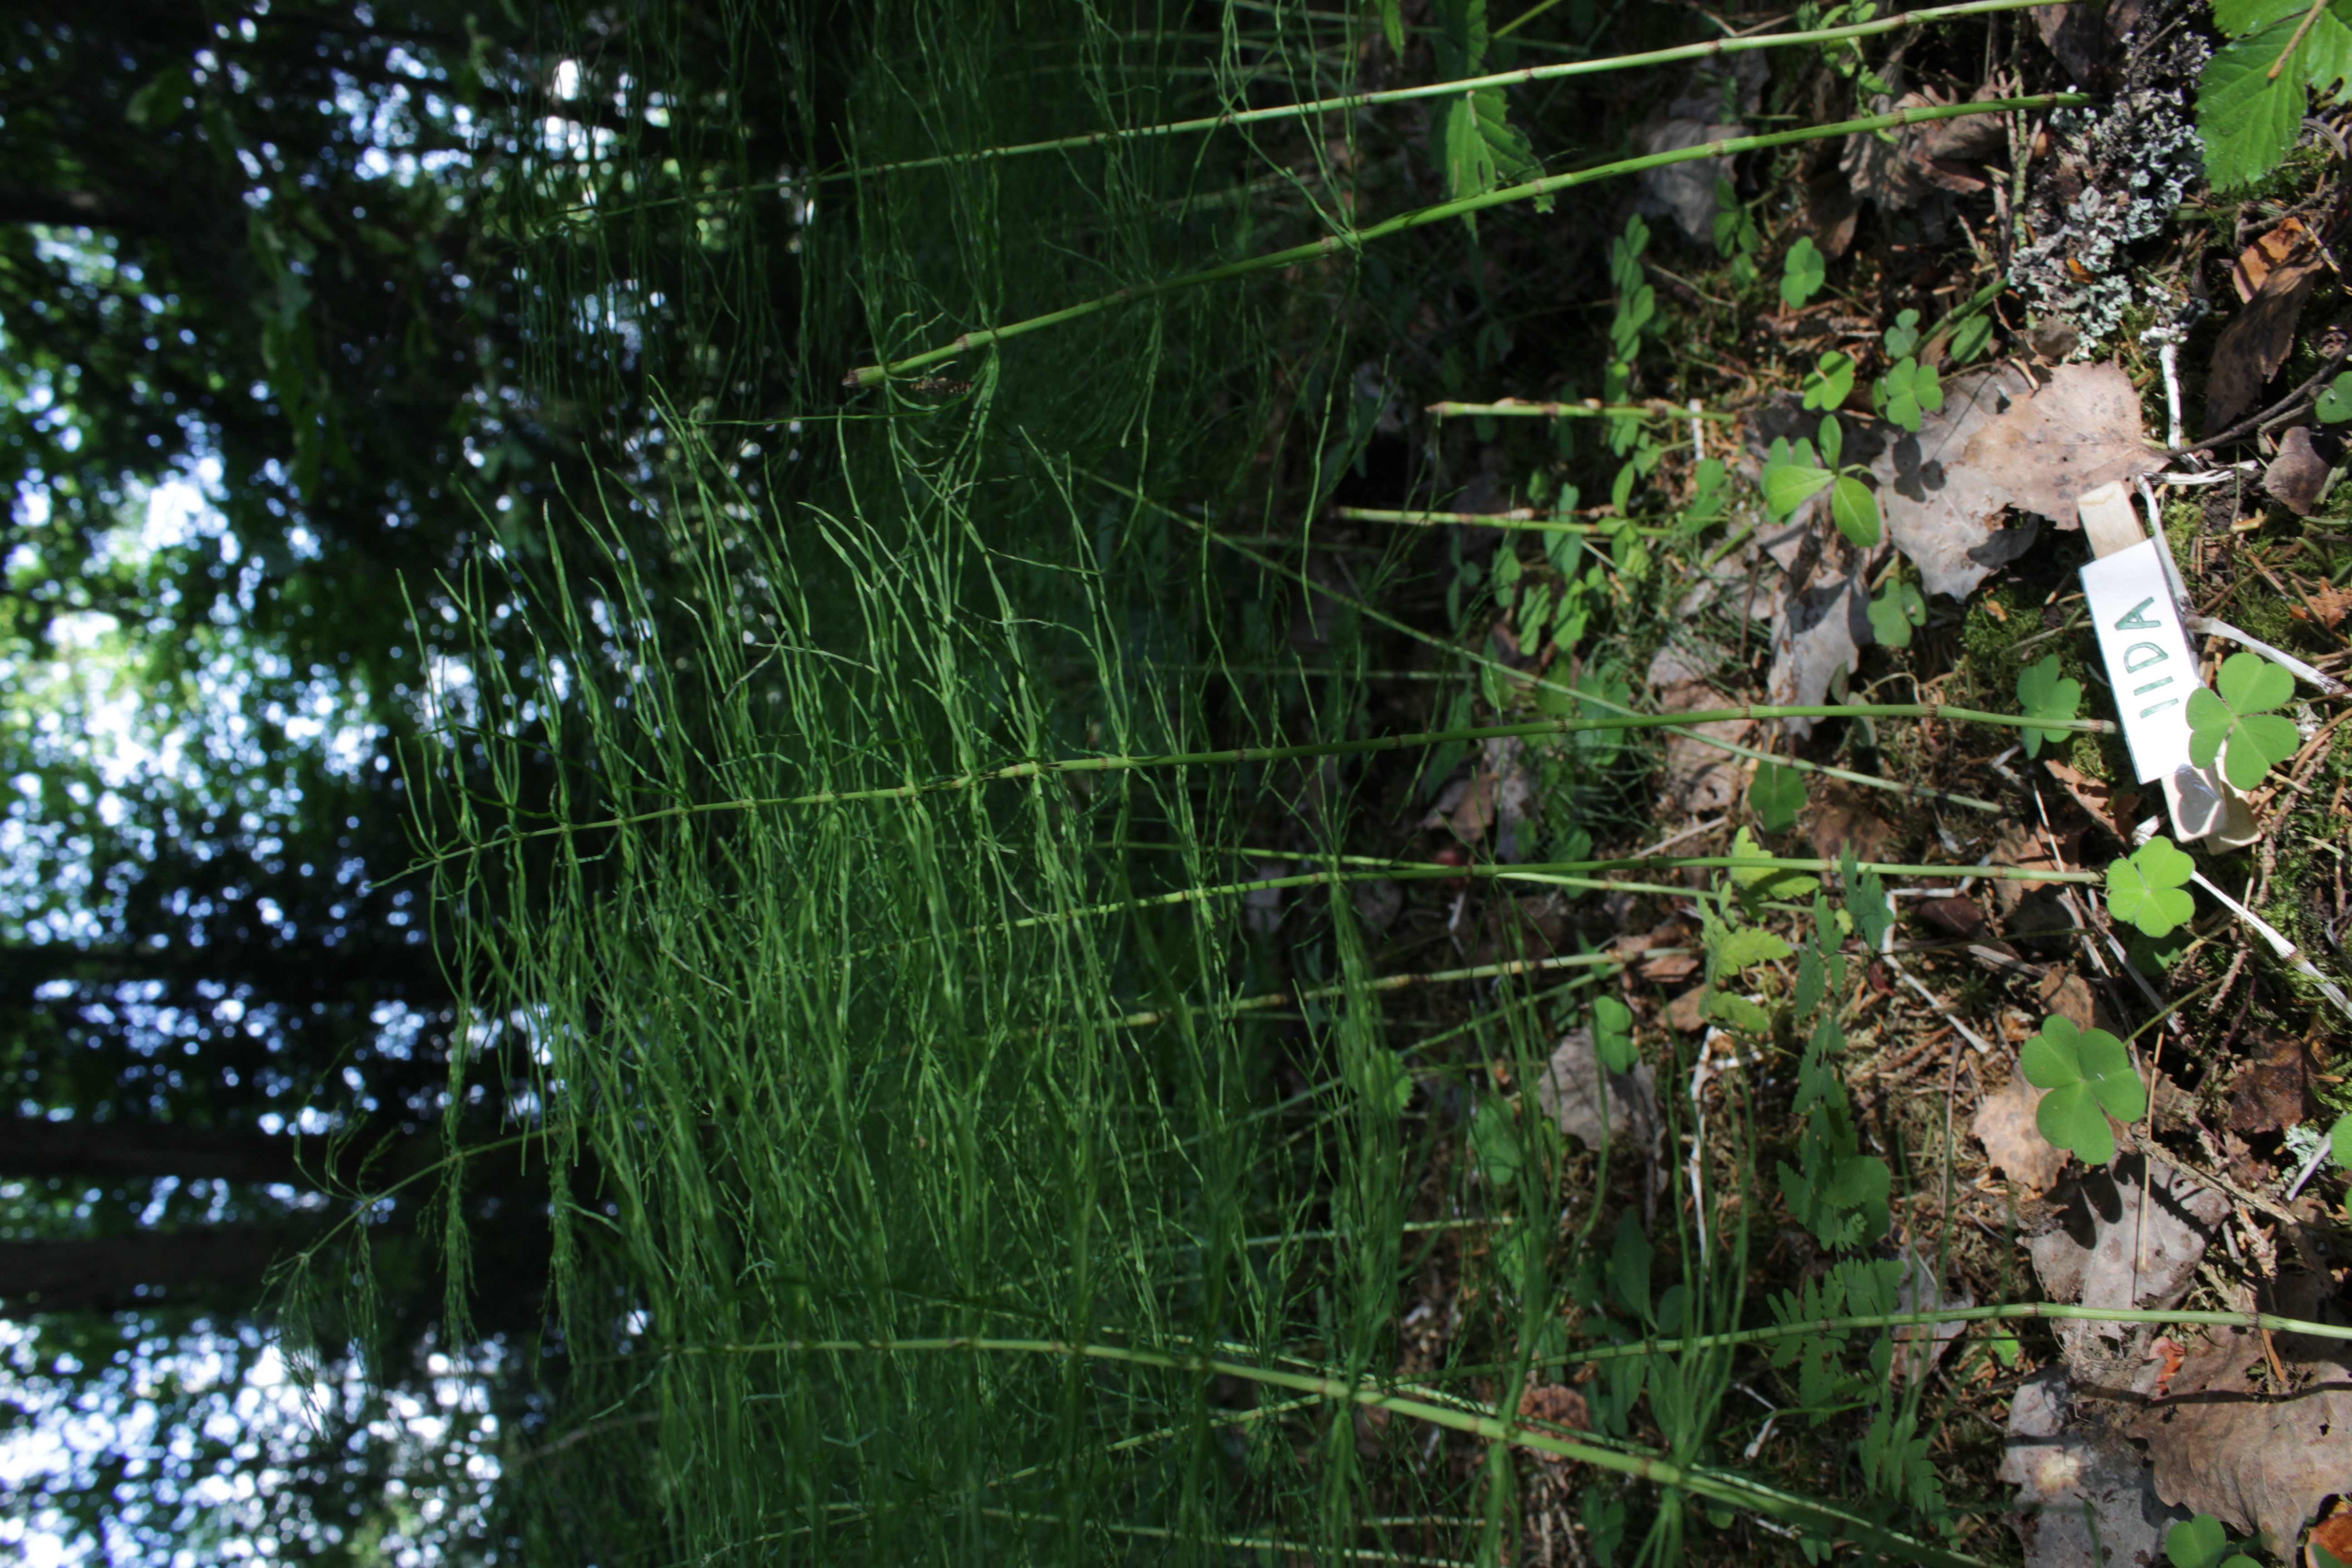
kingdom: Plantae
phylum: Tracheophyta
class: Polypodiopsida
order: Equisetales
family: Equisetaceae
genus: Equisetum
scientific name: Equisetum sylvaticum
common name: Wood horsetail
